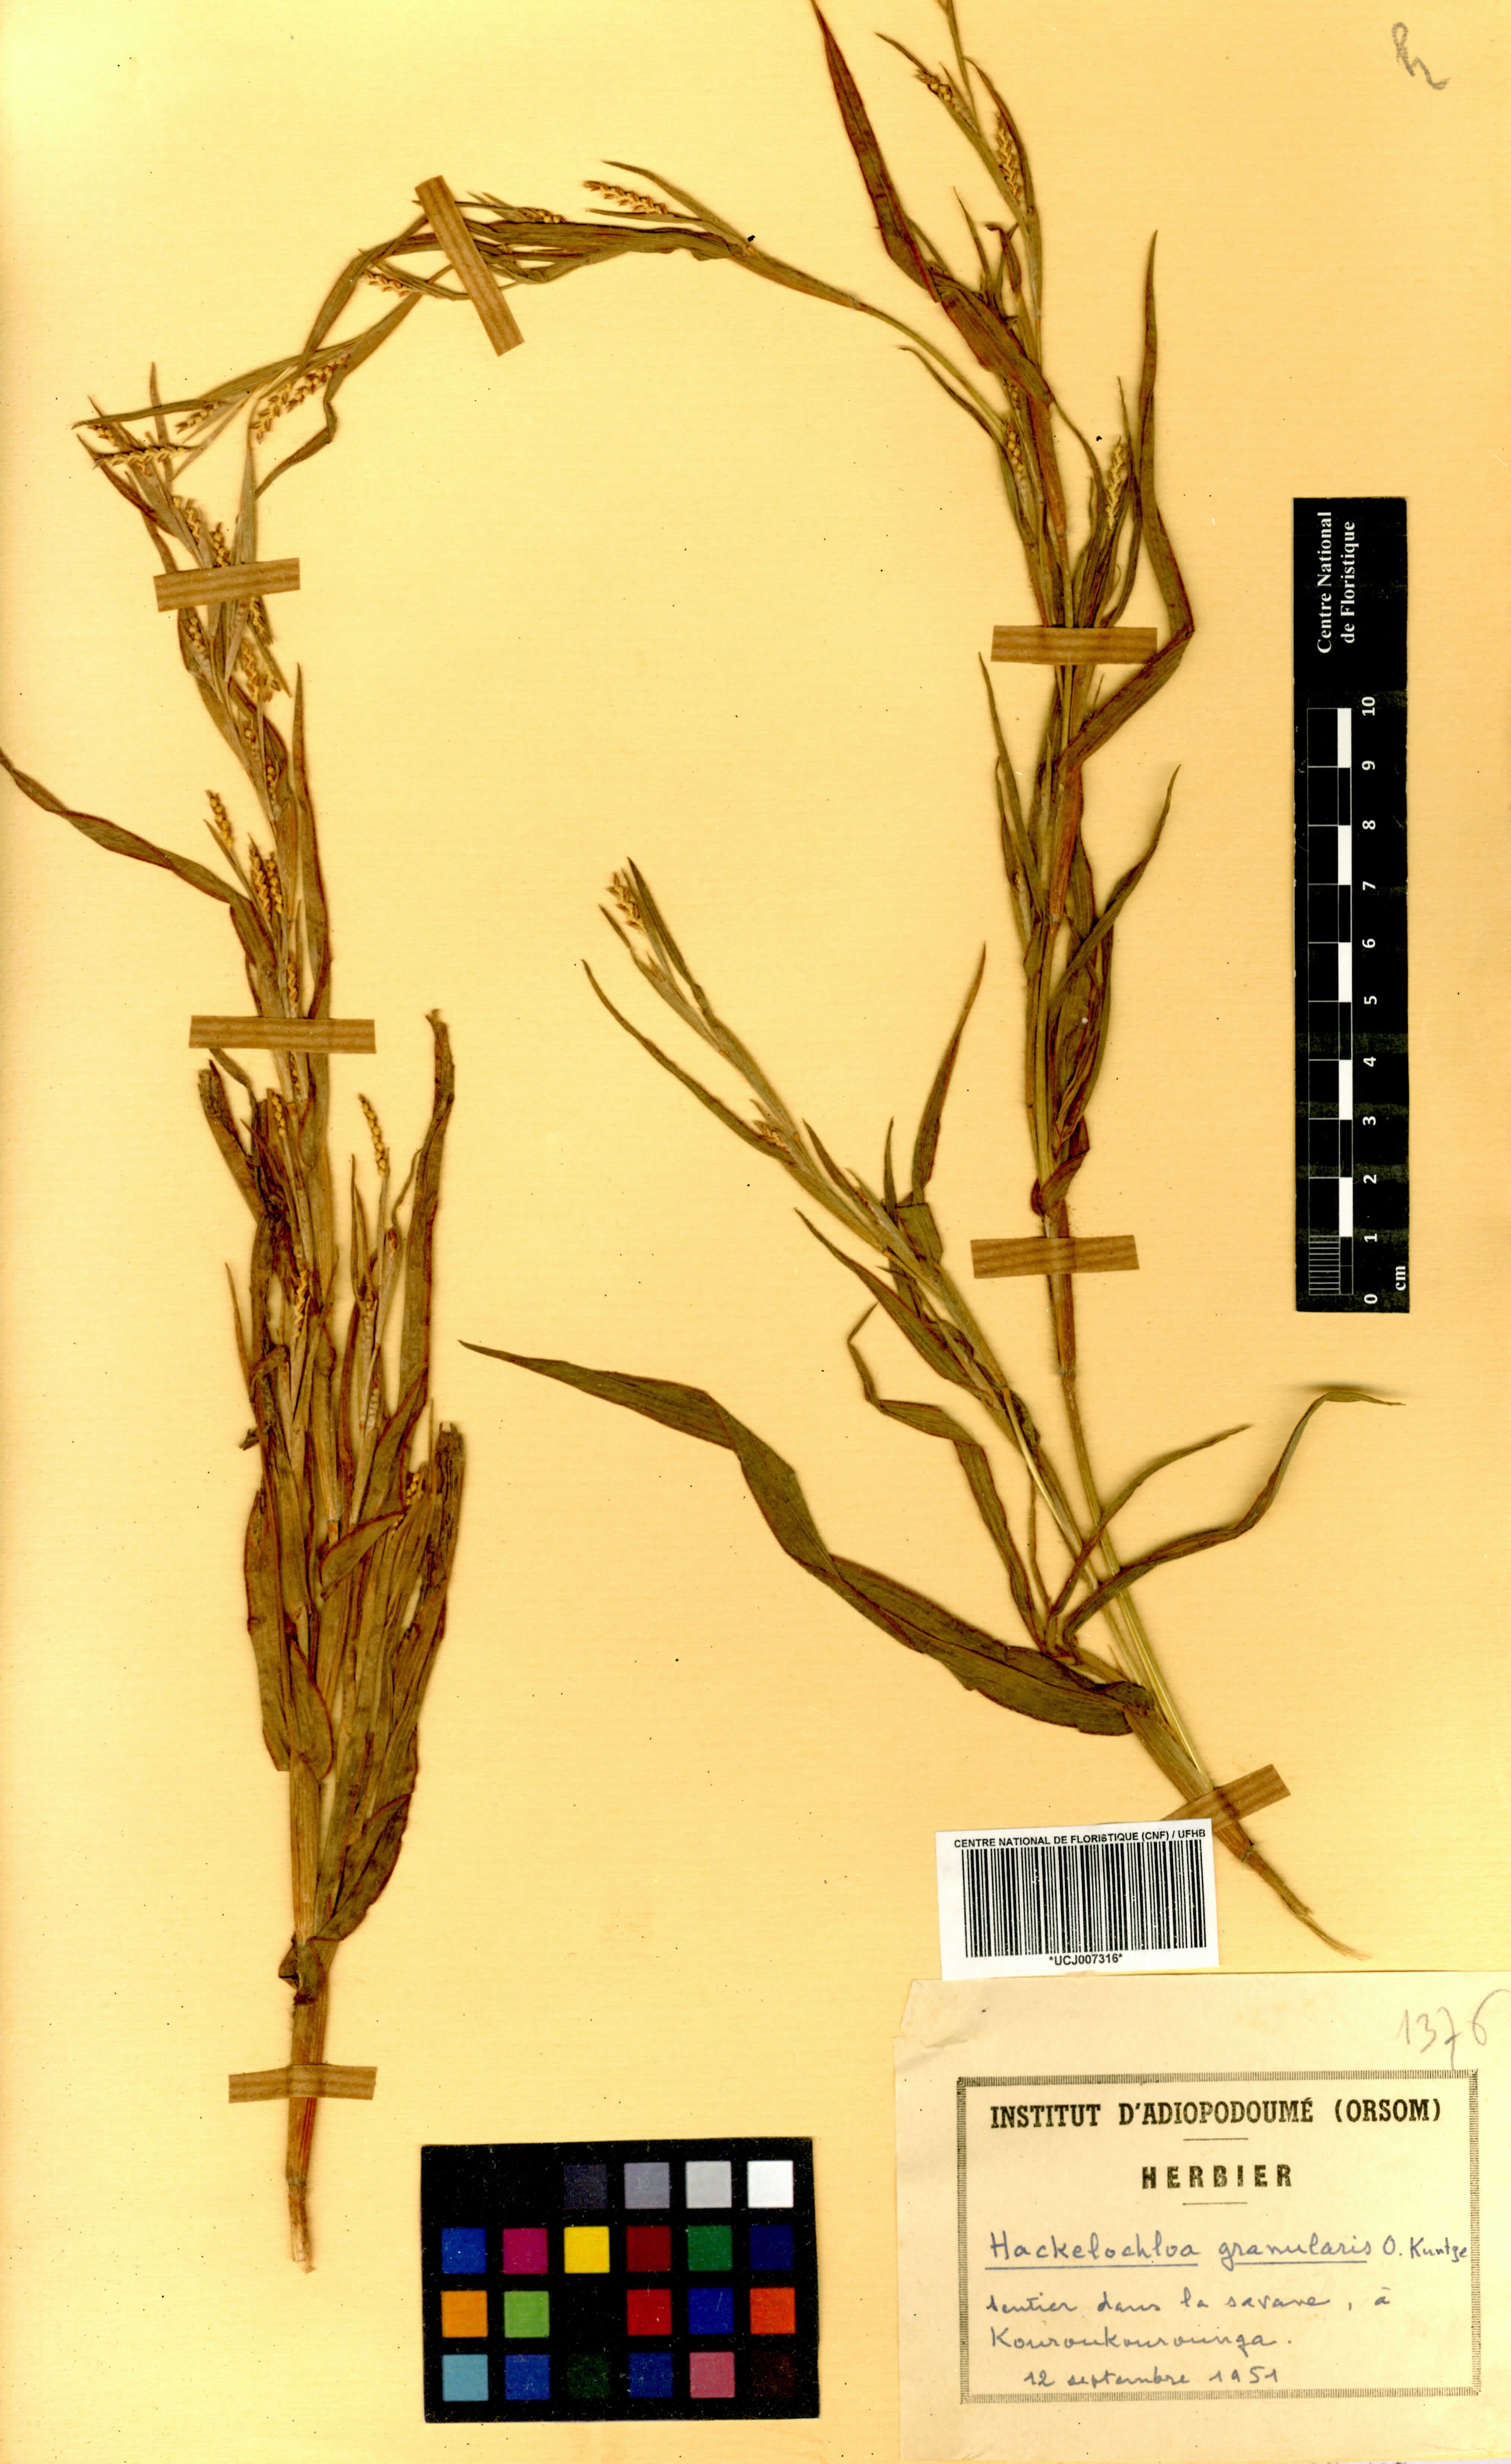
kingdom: Plantae
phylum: Tracheophyta
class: Liliopsida
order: Poales
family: Poaceae
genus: Hackelochloa
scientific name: Hackelochloa granularis
